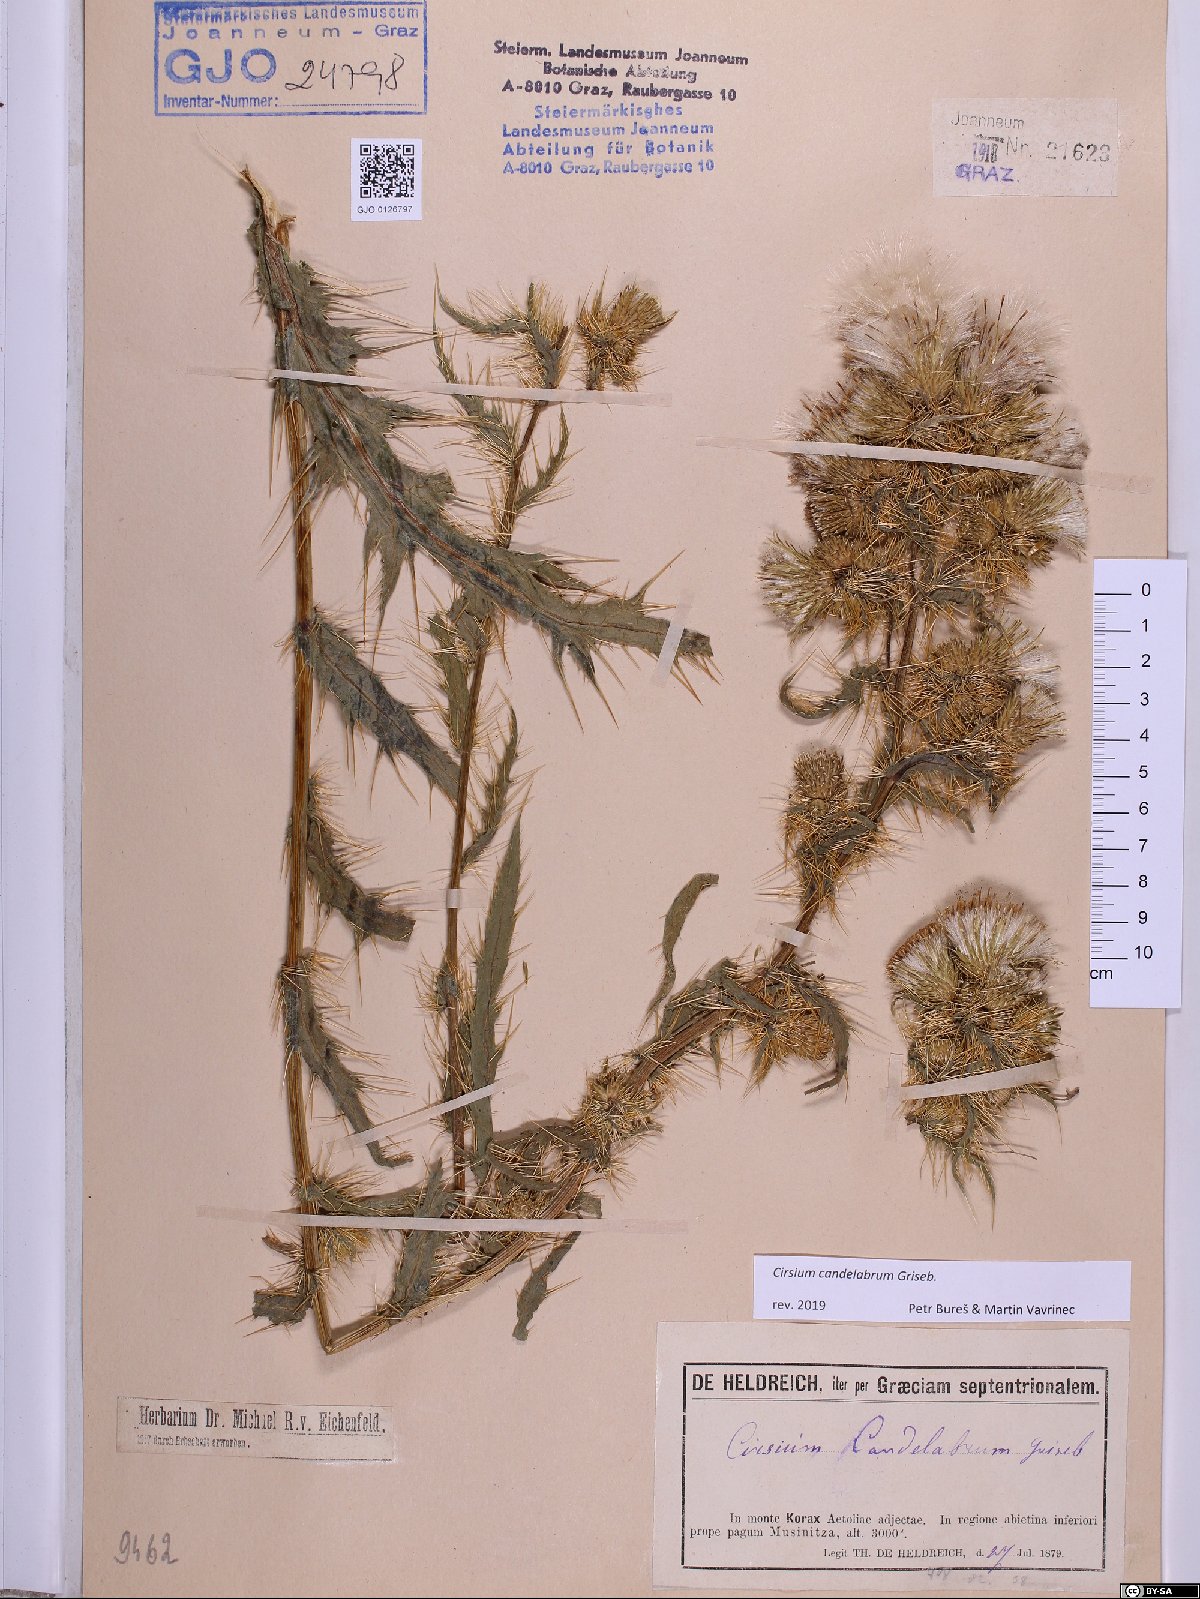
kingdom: Plantae
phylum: Tracheophyta
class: Magnoliopsida
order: Asterales
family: Asteraceae
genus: Cirsium
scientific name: Cirsium candelabrum
